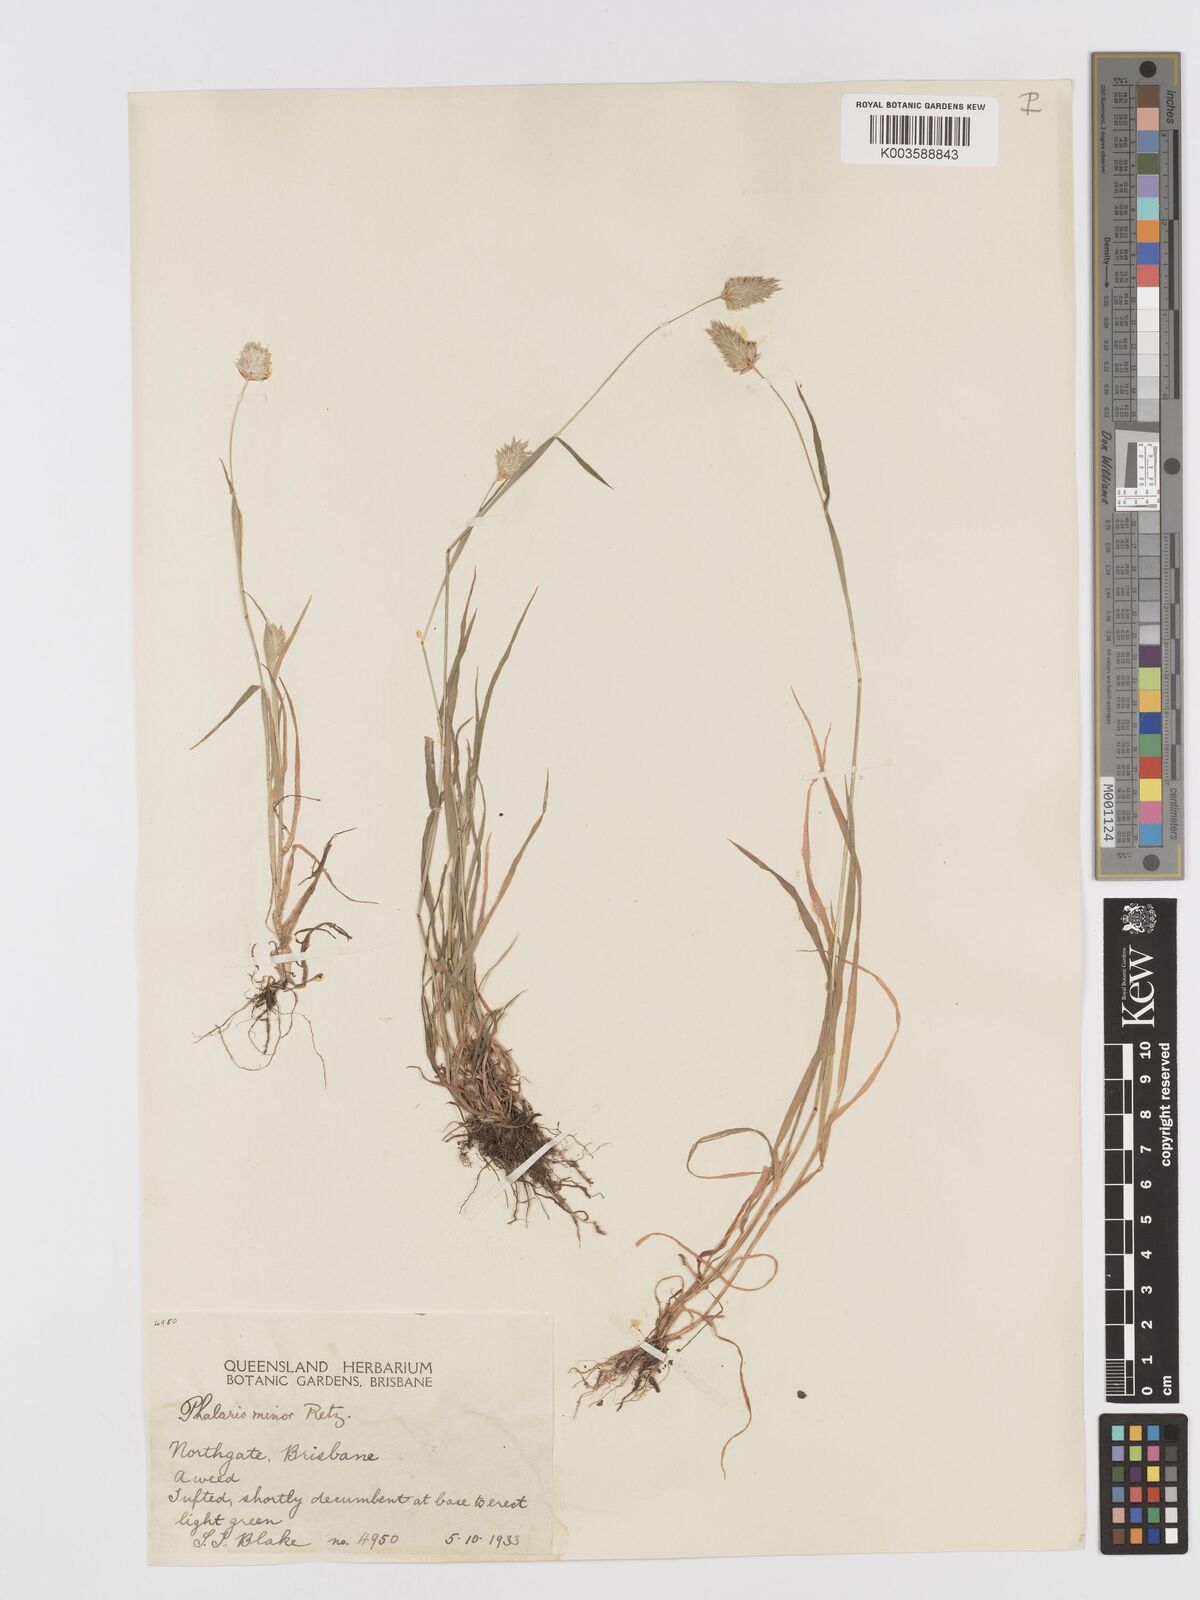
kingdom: Plantae
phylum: Tracheophyta
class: Liliopsida
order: Poales
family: Poaceae
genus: Phalaris
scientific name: Phalaris minor
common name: Littleseed canarygrass
